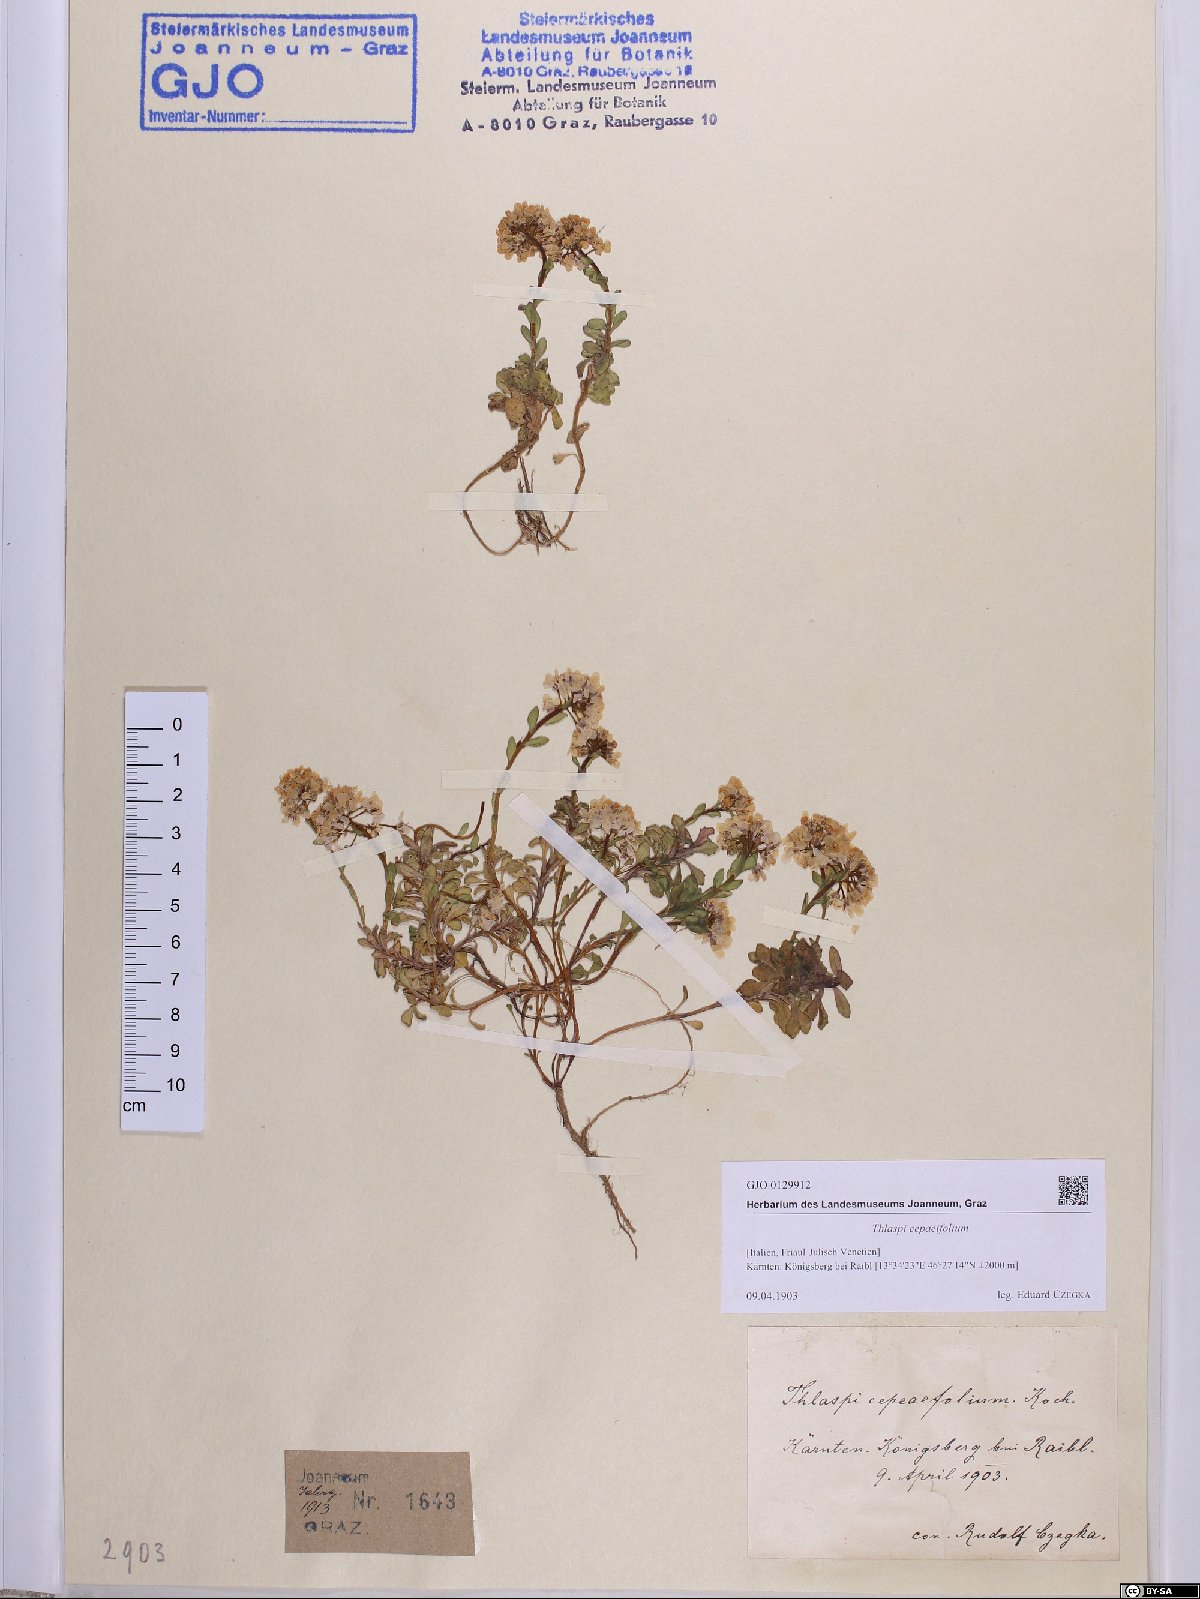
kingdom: Plantae
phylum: Tracheophyta
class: Magnoliopsida
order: Brassicales
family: Brassicaceae
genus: Noccaea
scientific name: Noccaea cepaeifolia
